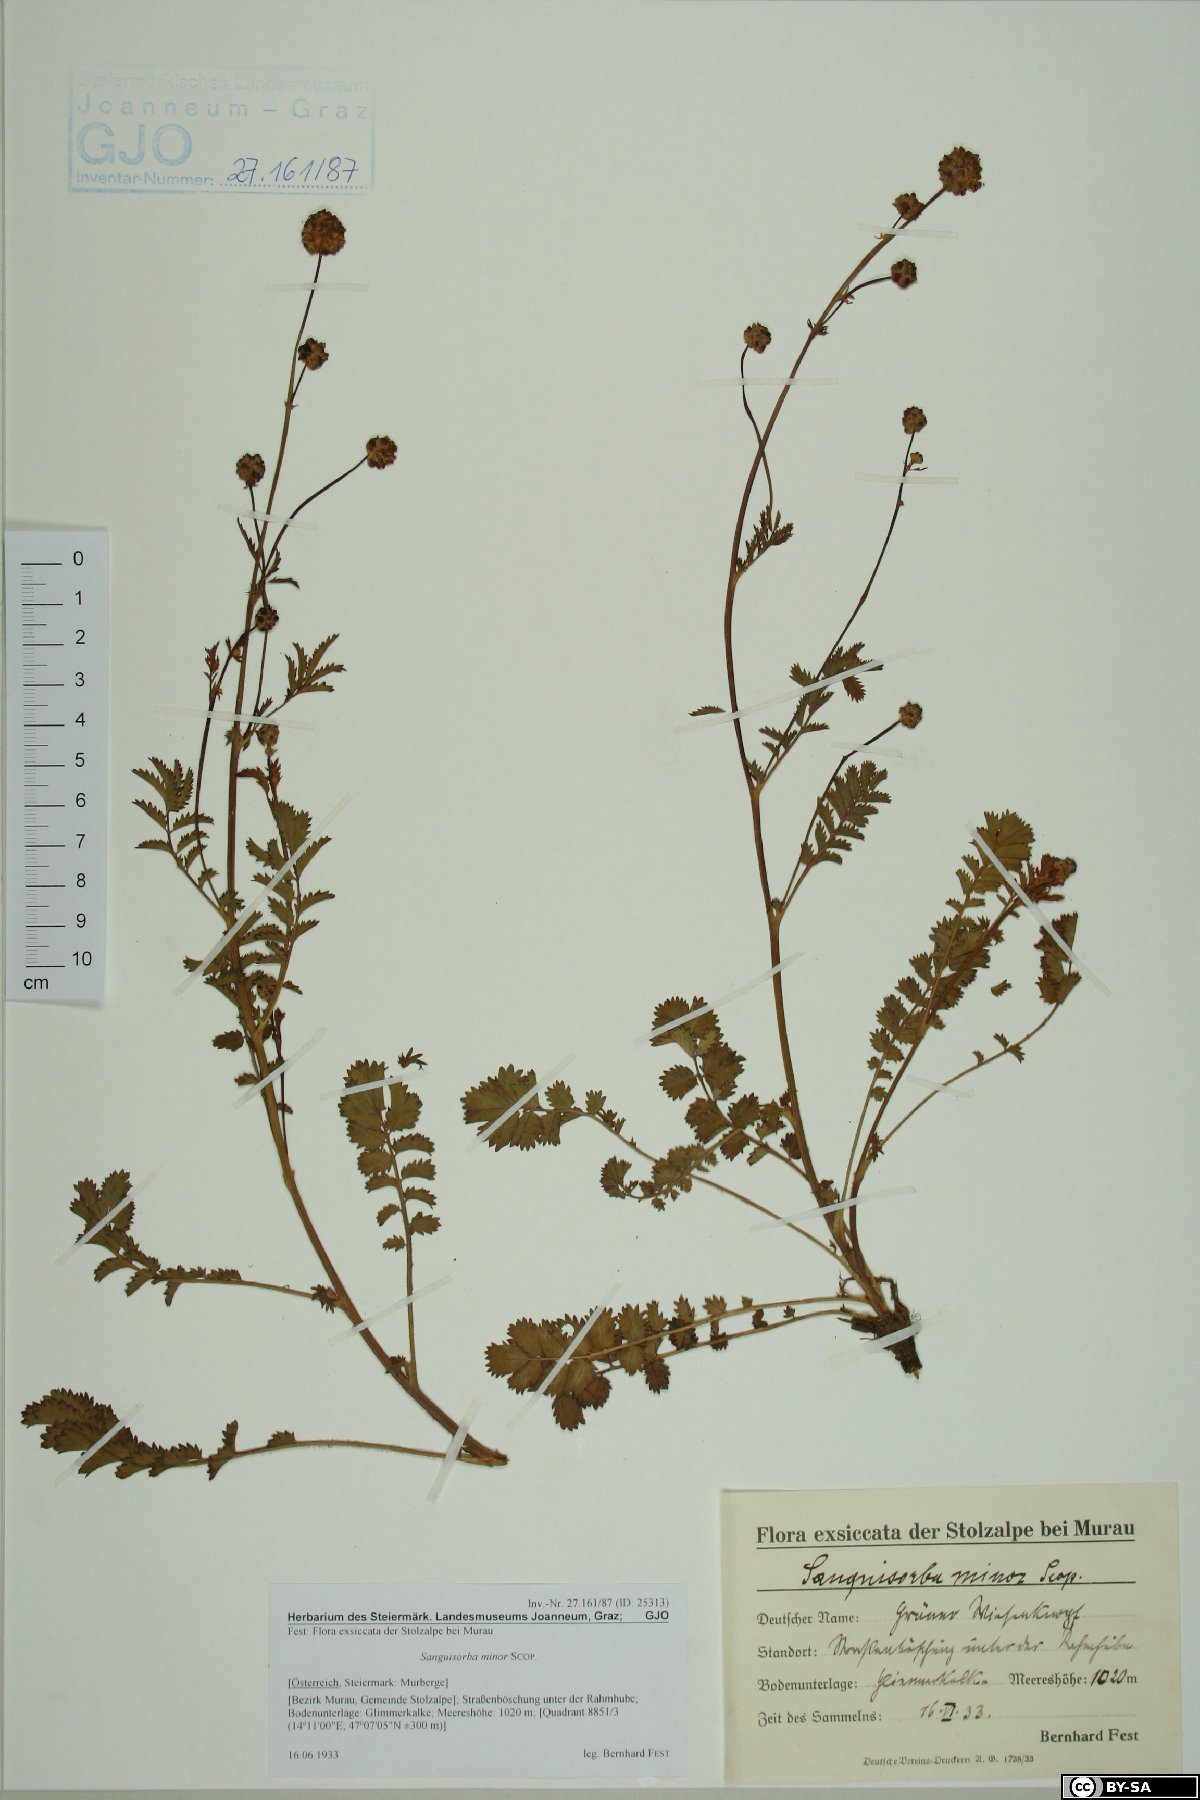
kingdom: Plantae
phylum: Tracheophyta
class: Magnoliopsida
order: Rosales
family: Rosaceae
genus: Poterium
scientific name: Poterium sanguisorba
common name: Salad burnet
